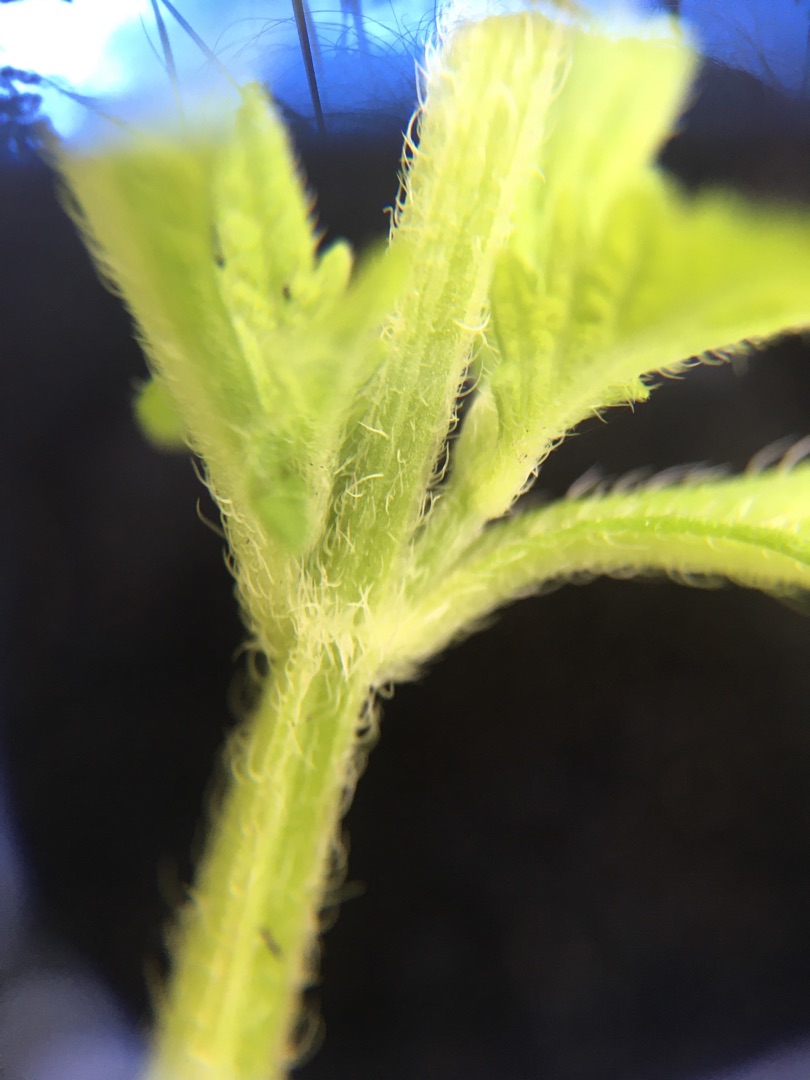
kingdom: Plantae
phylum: Tracheophyta
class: Magnoliopsida
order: Lamiales
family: Lamiaceae
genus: Lycopus
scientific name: Lycopus europaeus
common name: Sværtevæld
